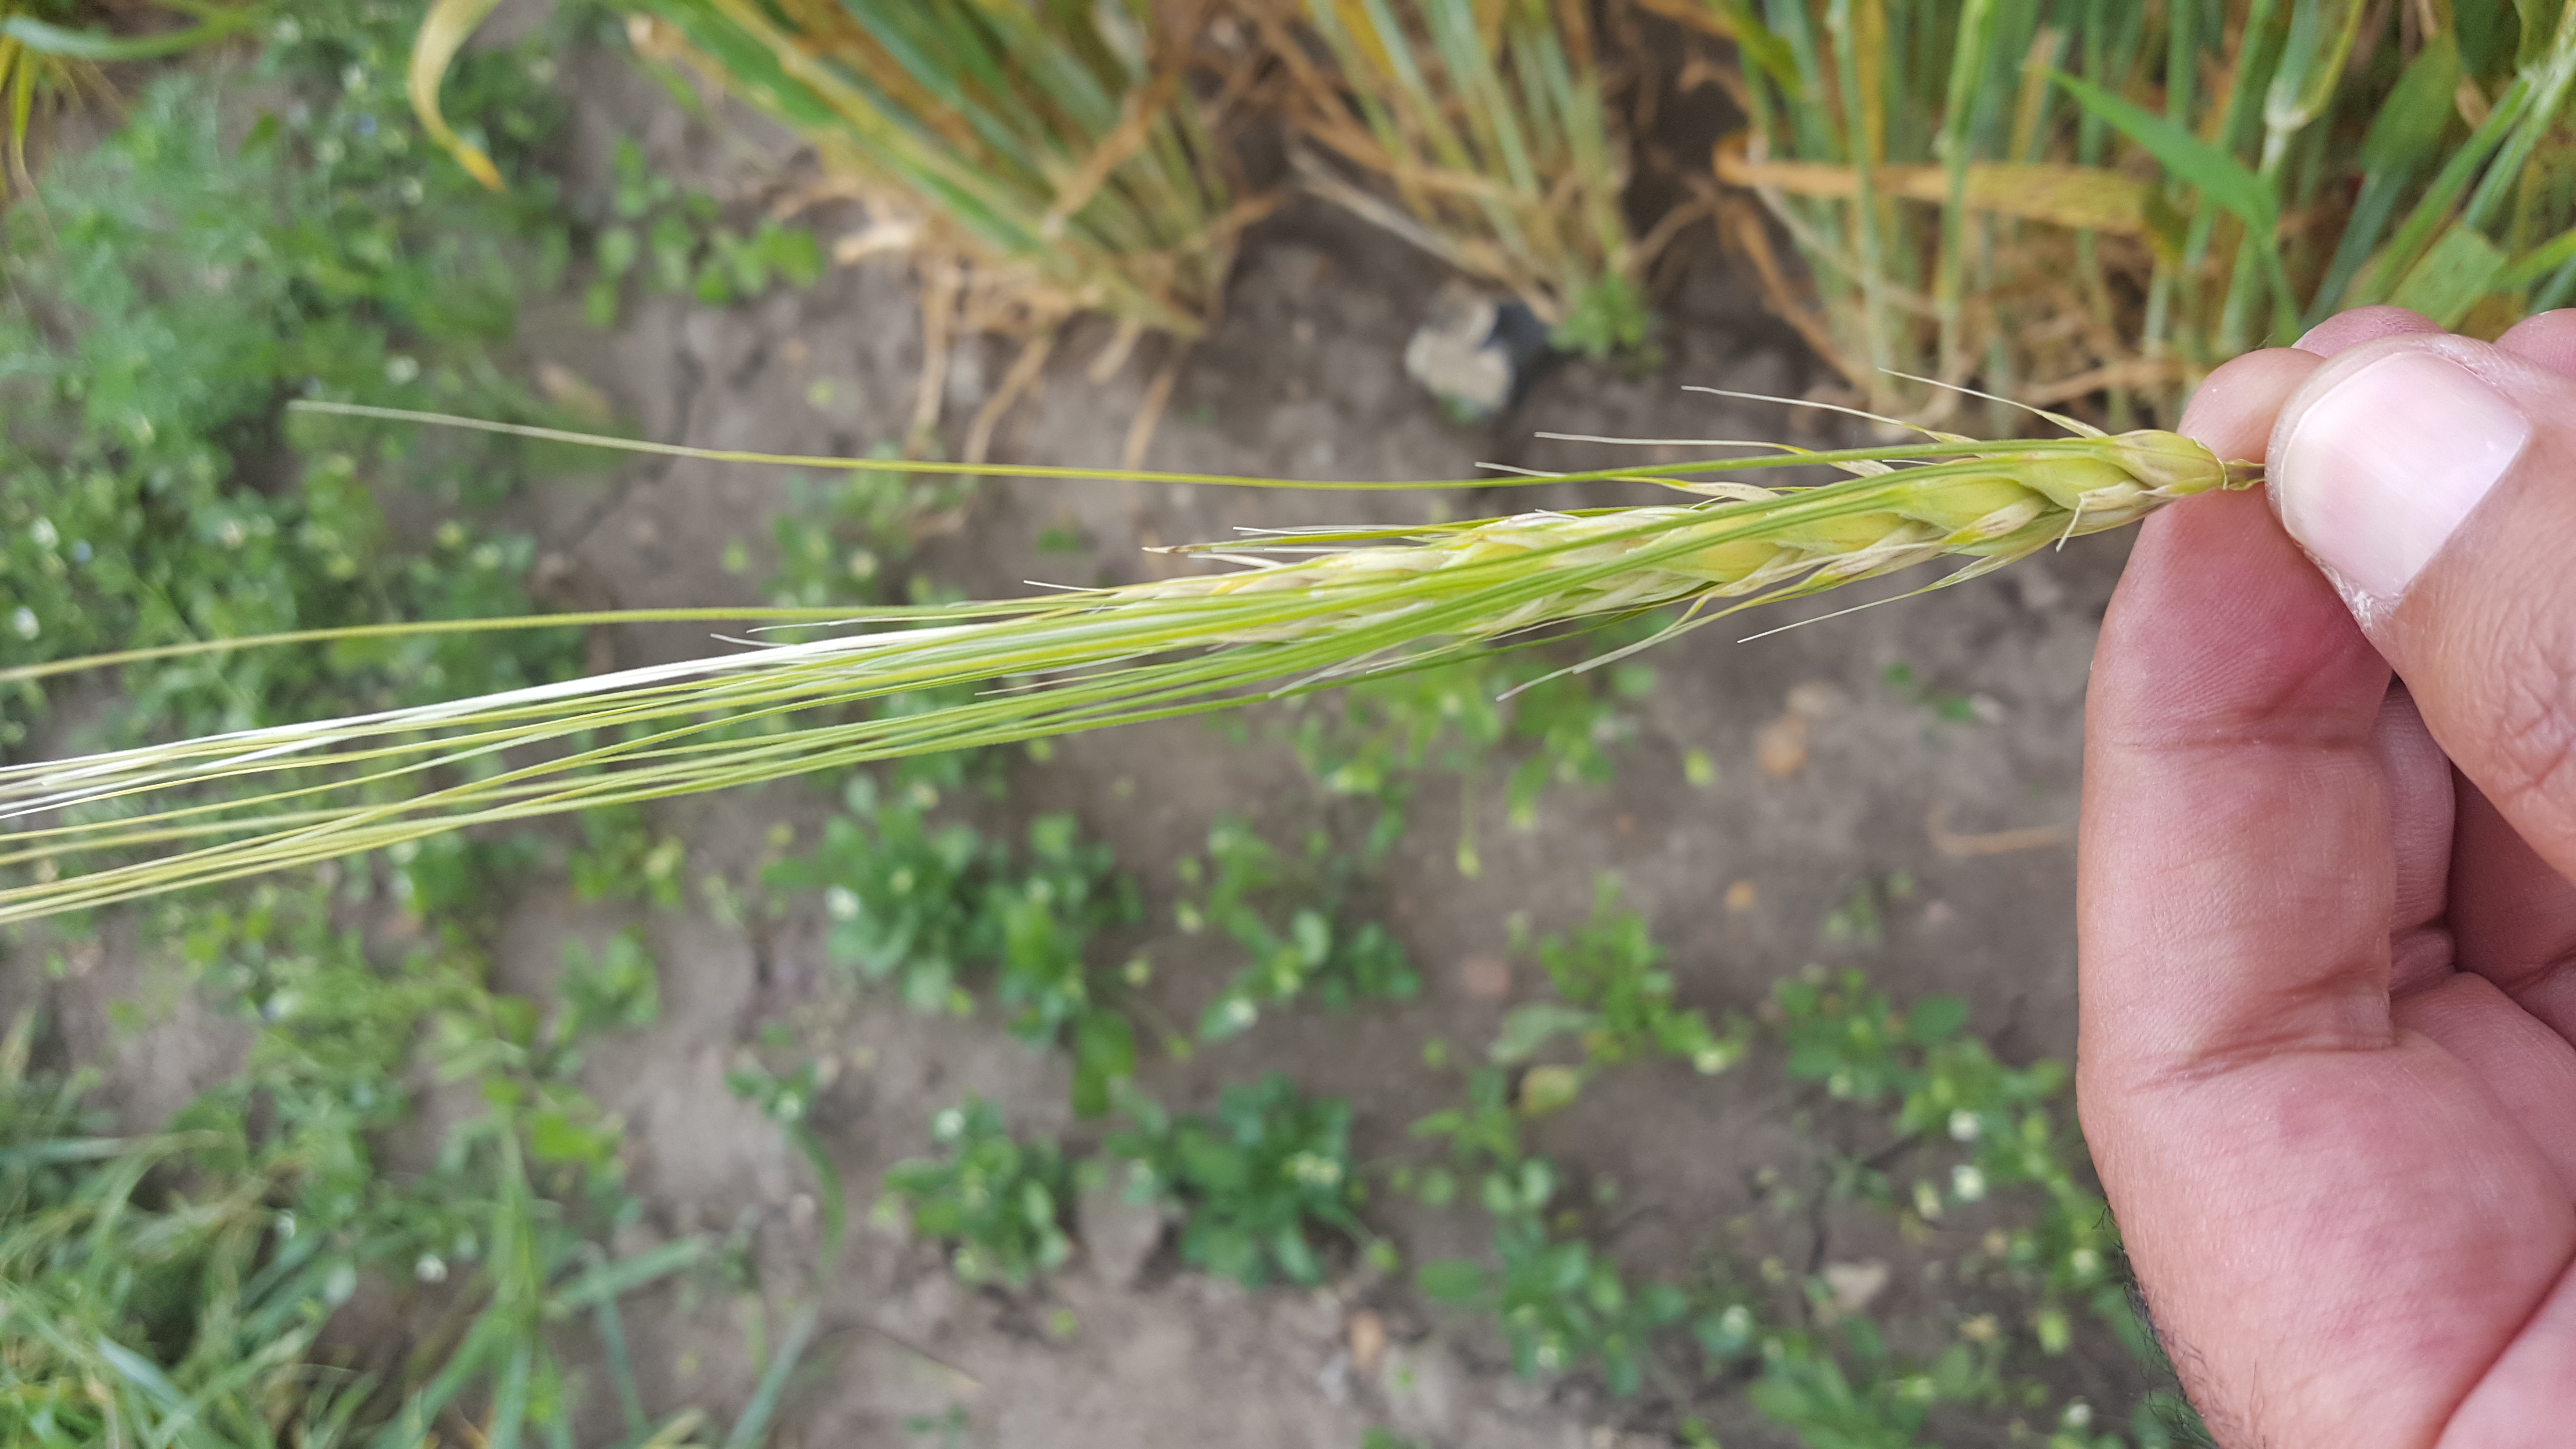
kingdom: Plantae
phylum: Tracheophyta
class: Liliopsida
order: Poales
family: Poaceae
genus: Hordeum
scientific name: Hordeum vulgare
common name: Common barley
